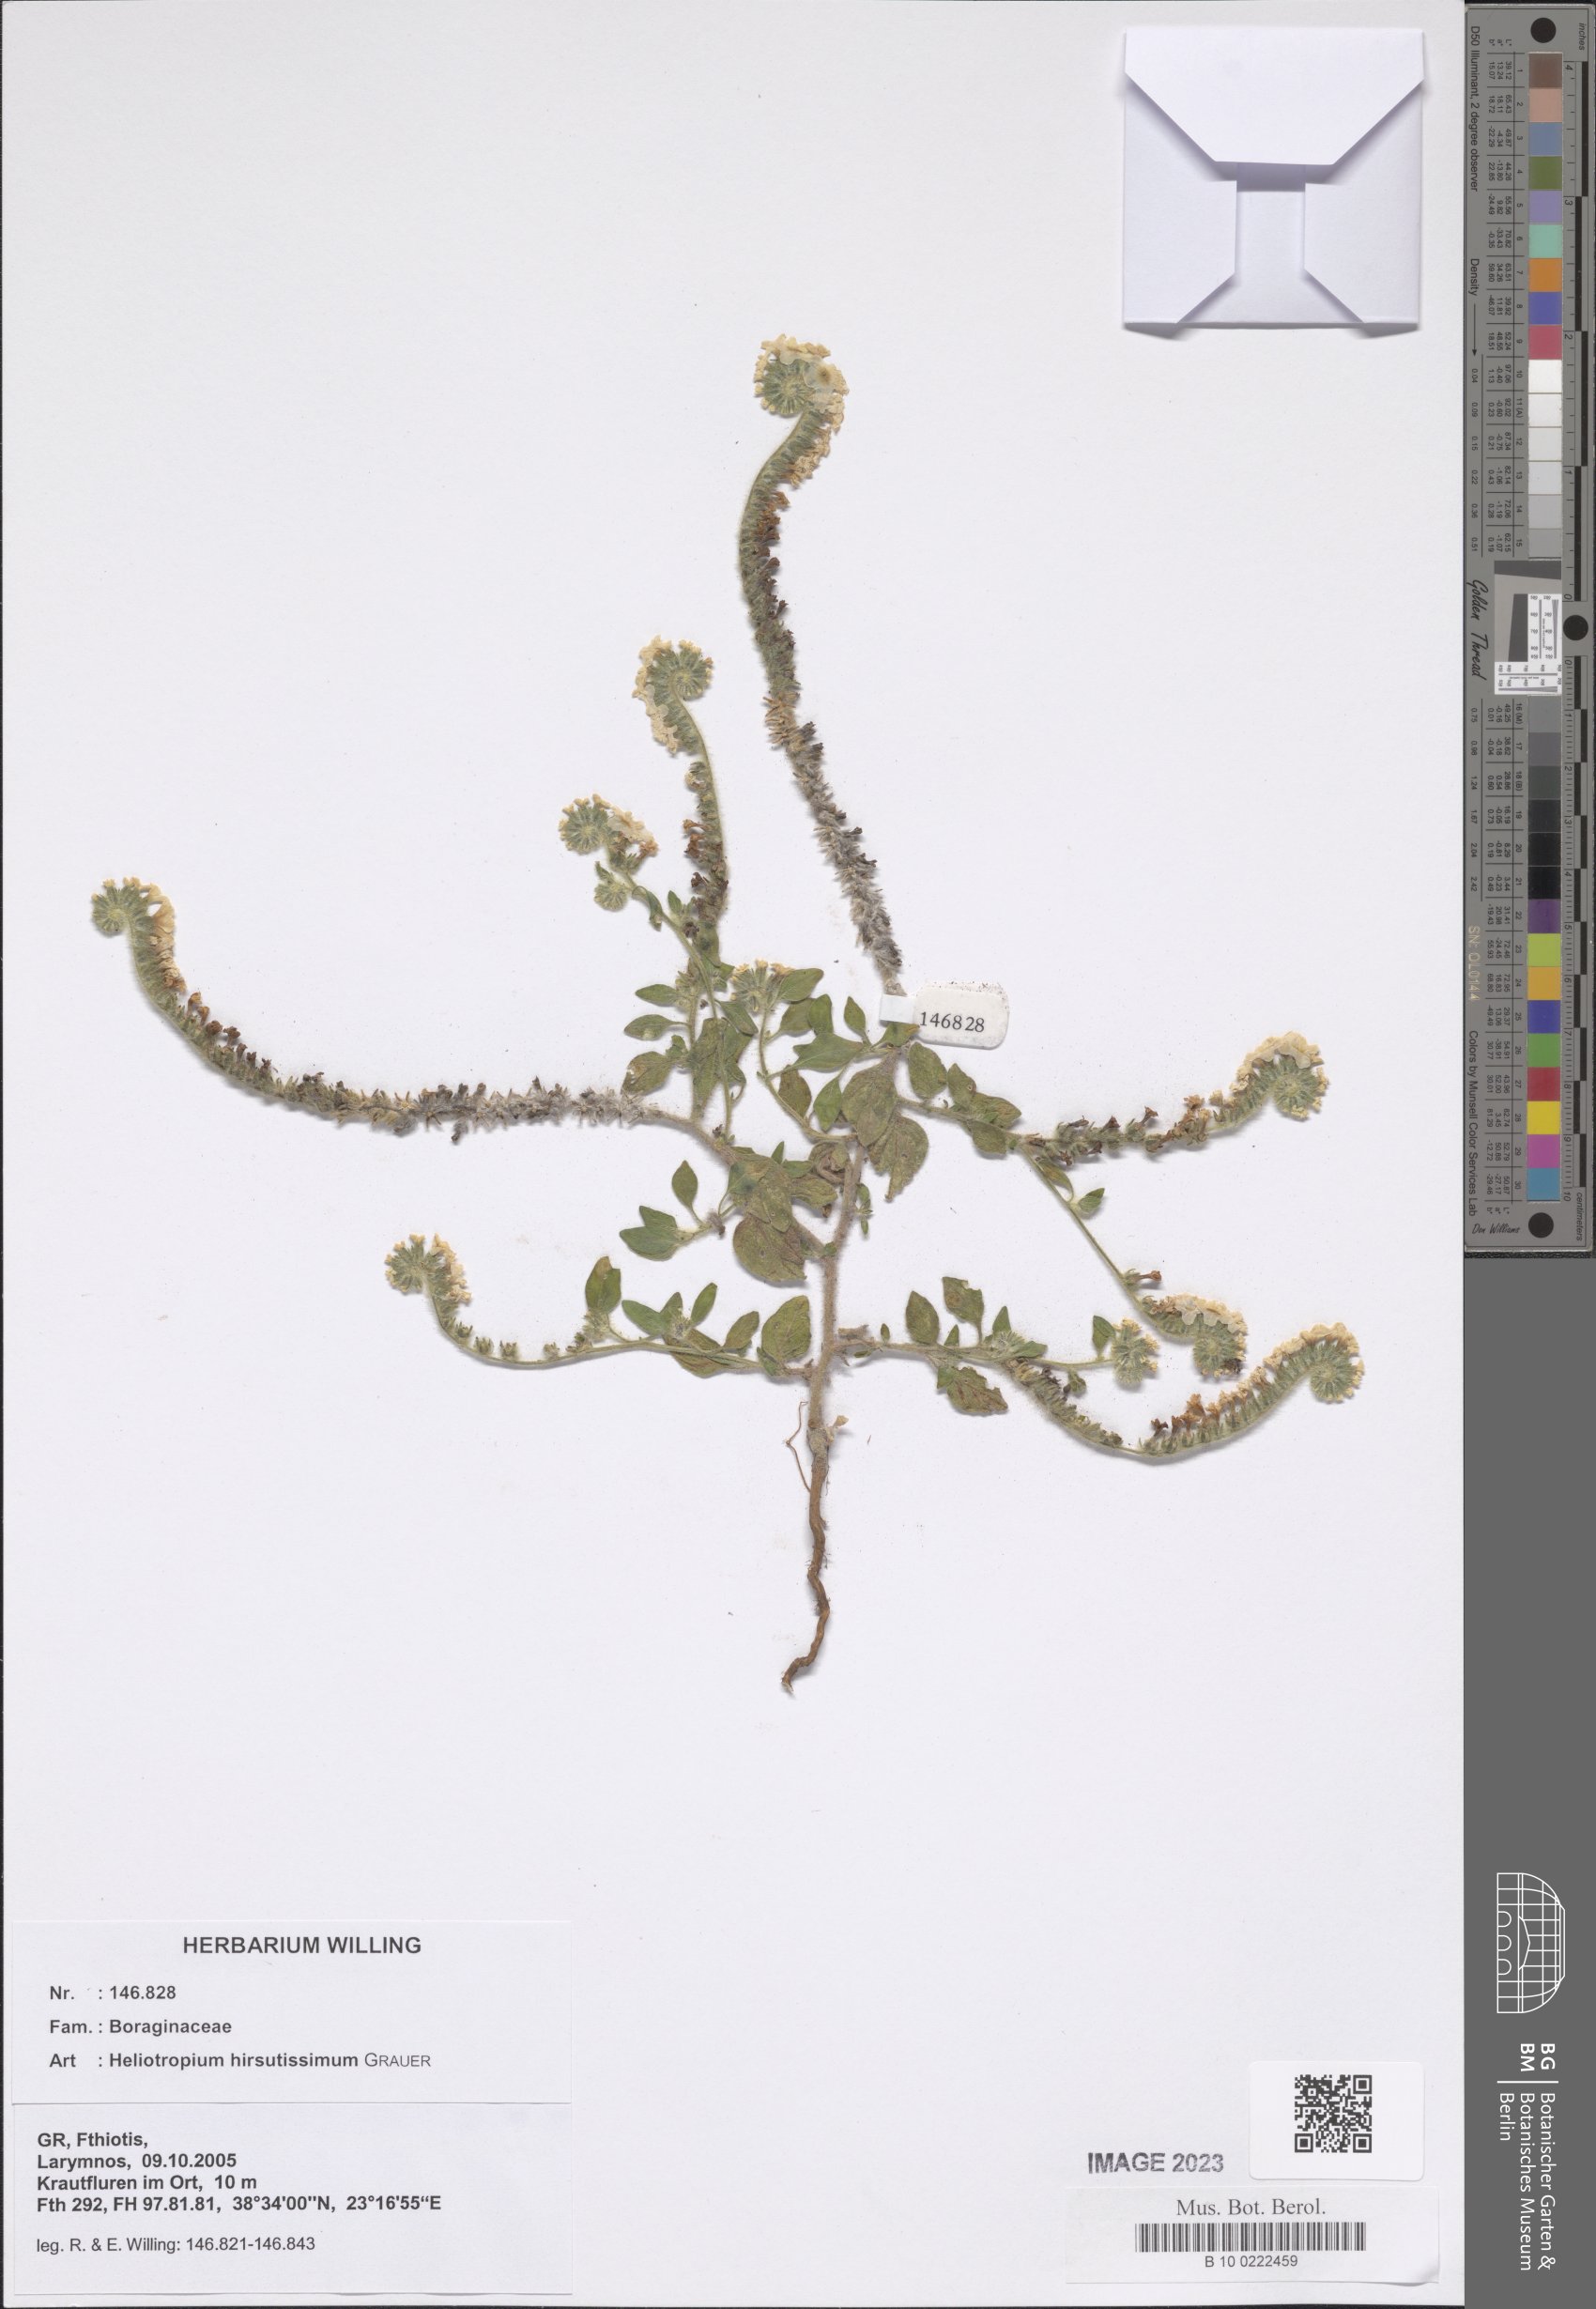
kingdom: Plantae
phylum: Tracheophyta
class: Magnoliopsida
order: Boraginales
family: Heliotropiaceae
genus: Heliotropium
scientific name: Heliotropium hirsutissimum
